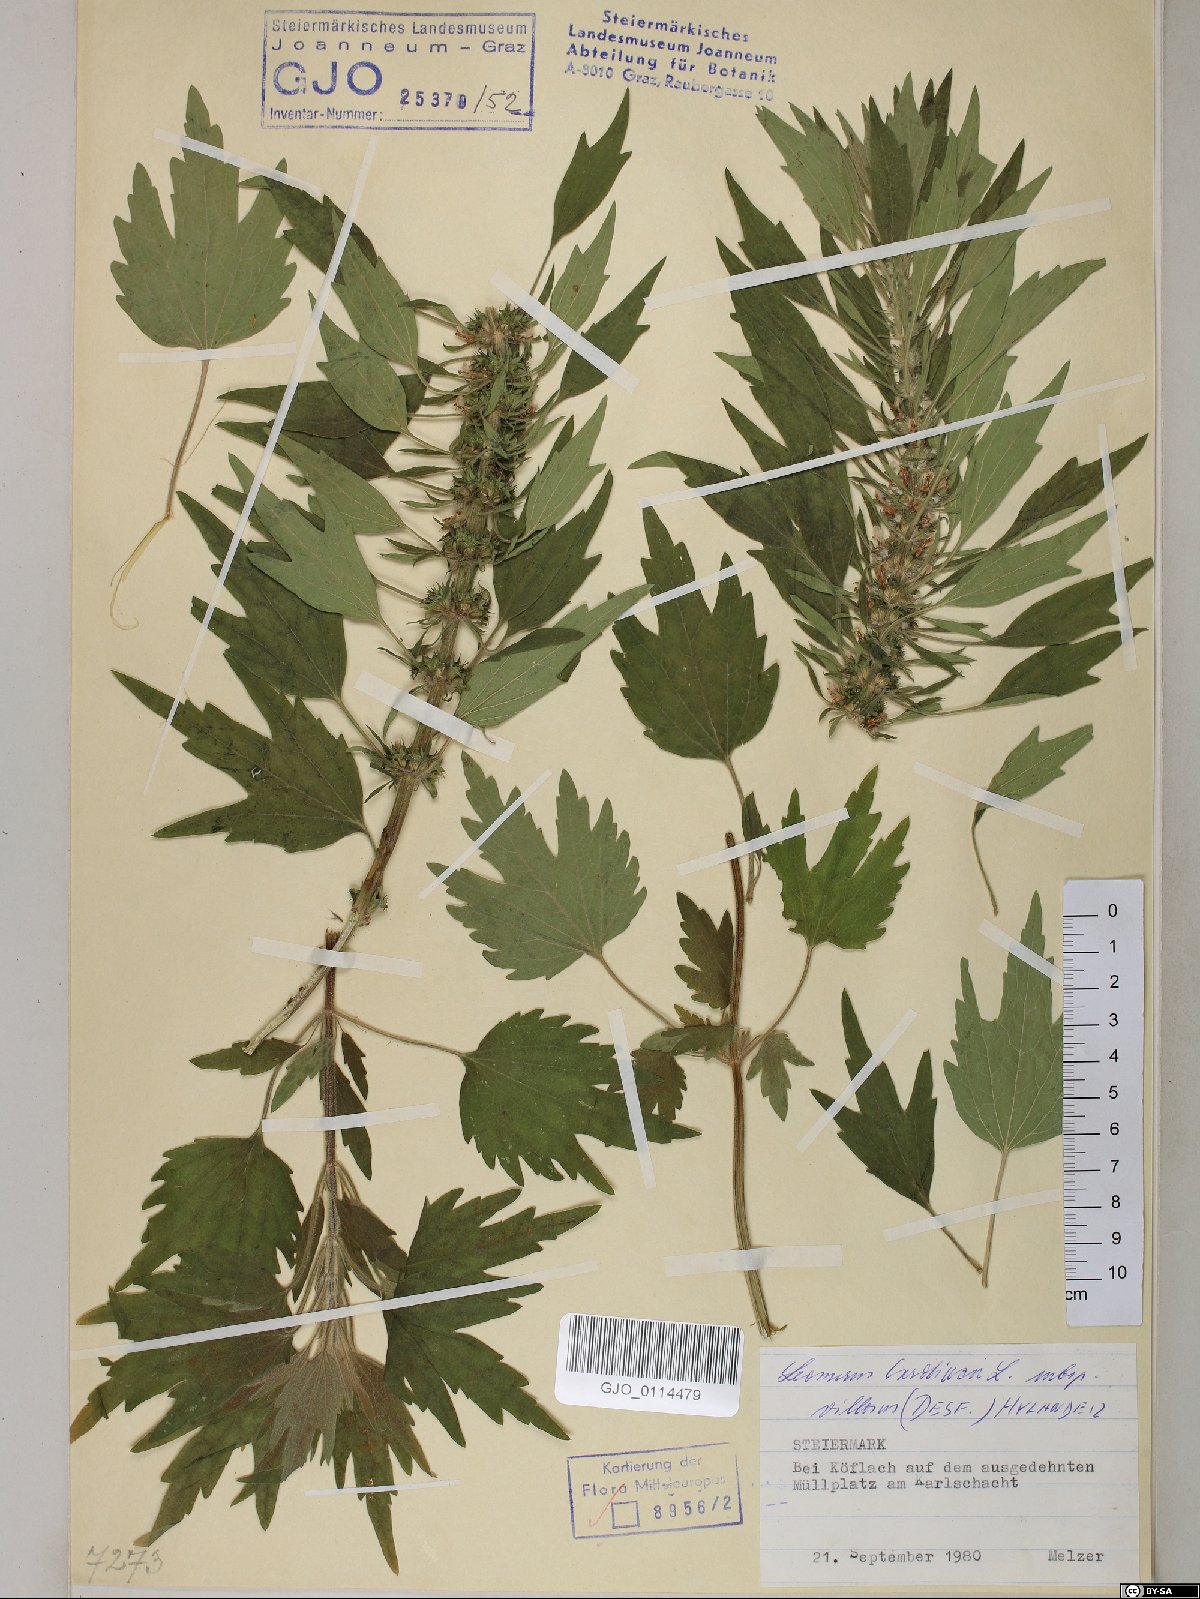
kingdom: Plantae
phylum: Tracheophyta
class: Magnoliopsida
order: Lamiales
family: Lamiaceae
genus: Leonurus
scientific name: Leonurus quinquelobatus
